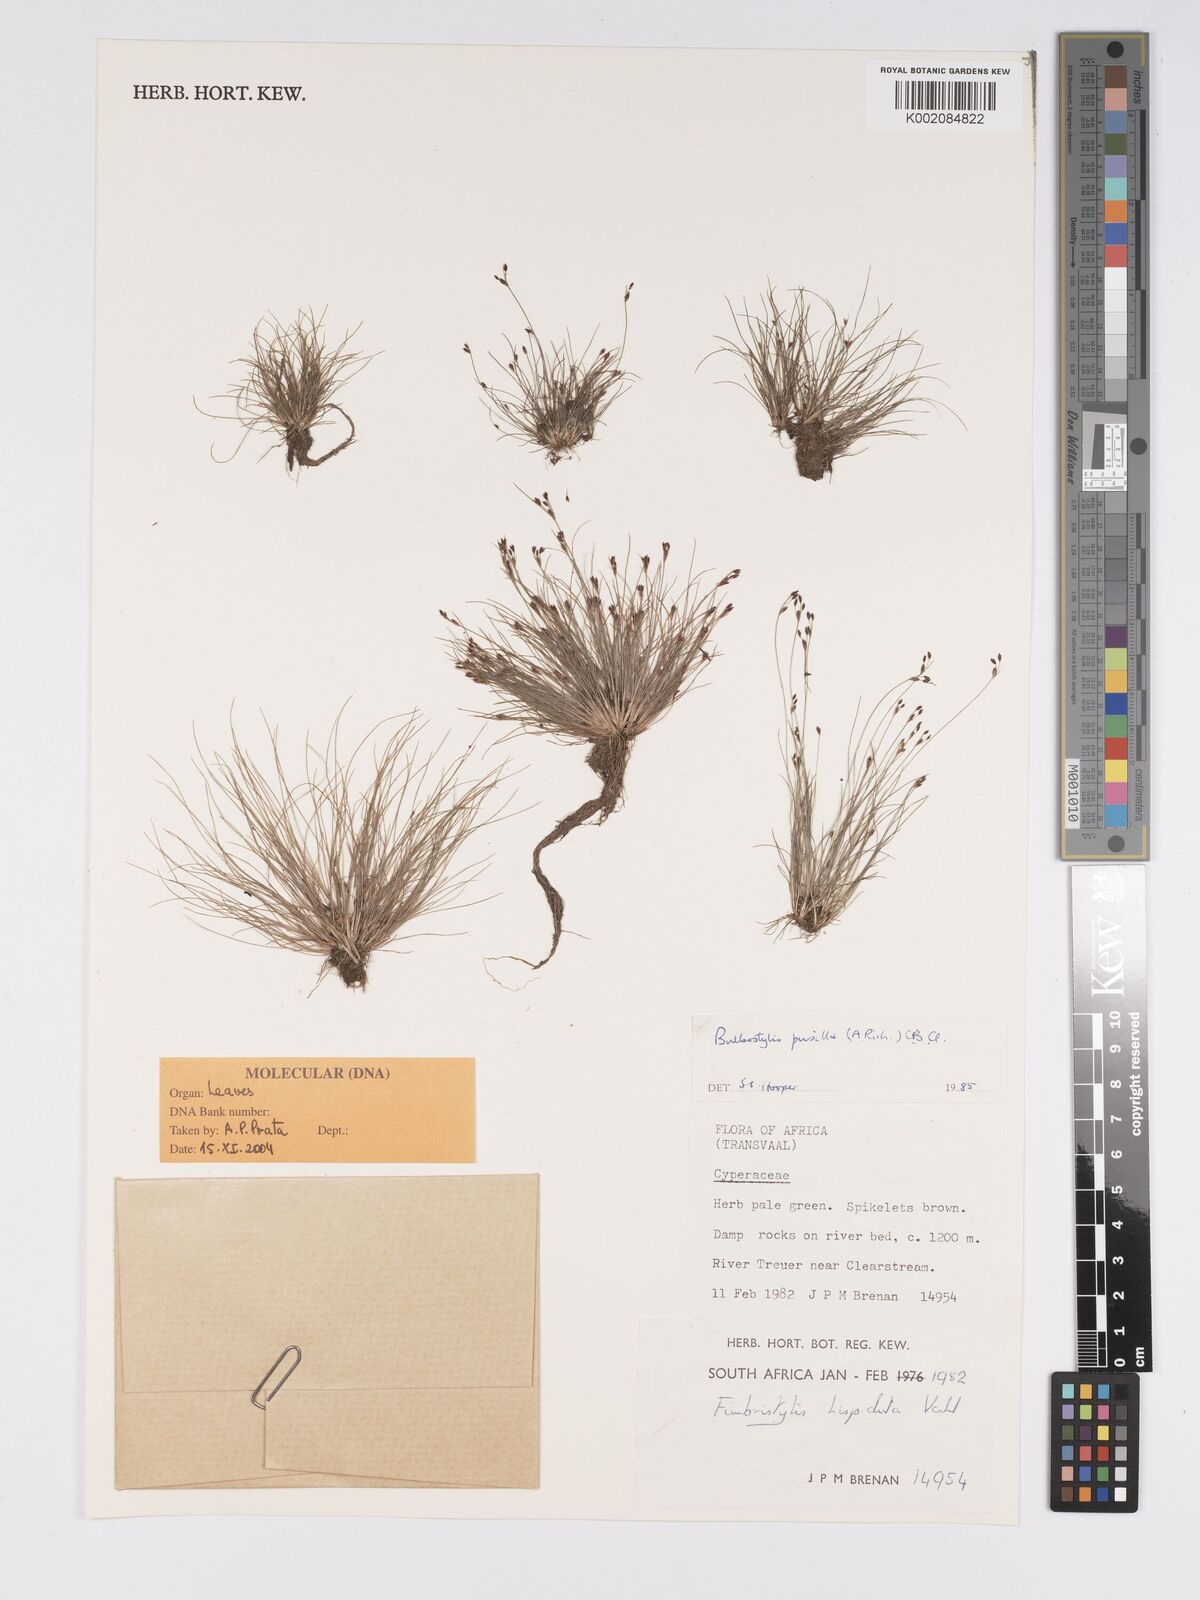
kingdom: Plantae
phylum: Tracheophyta
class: Liliopsida
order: Poales
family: Cyperaceae
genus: Bulbostylis
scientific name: Bulbostylis pusilla
